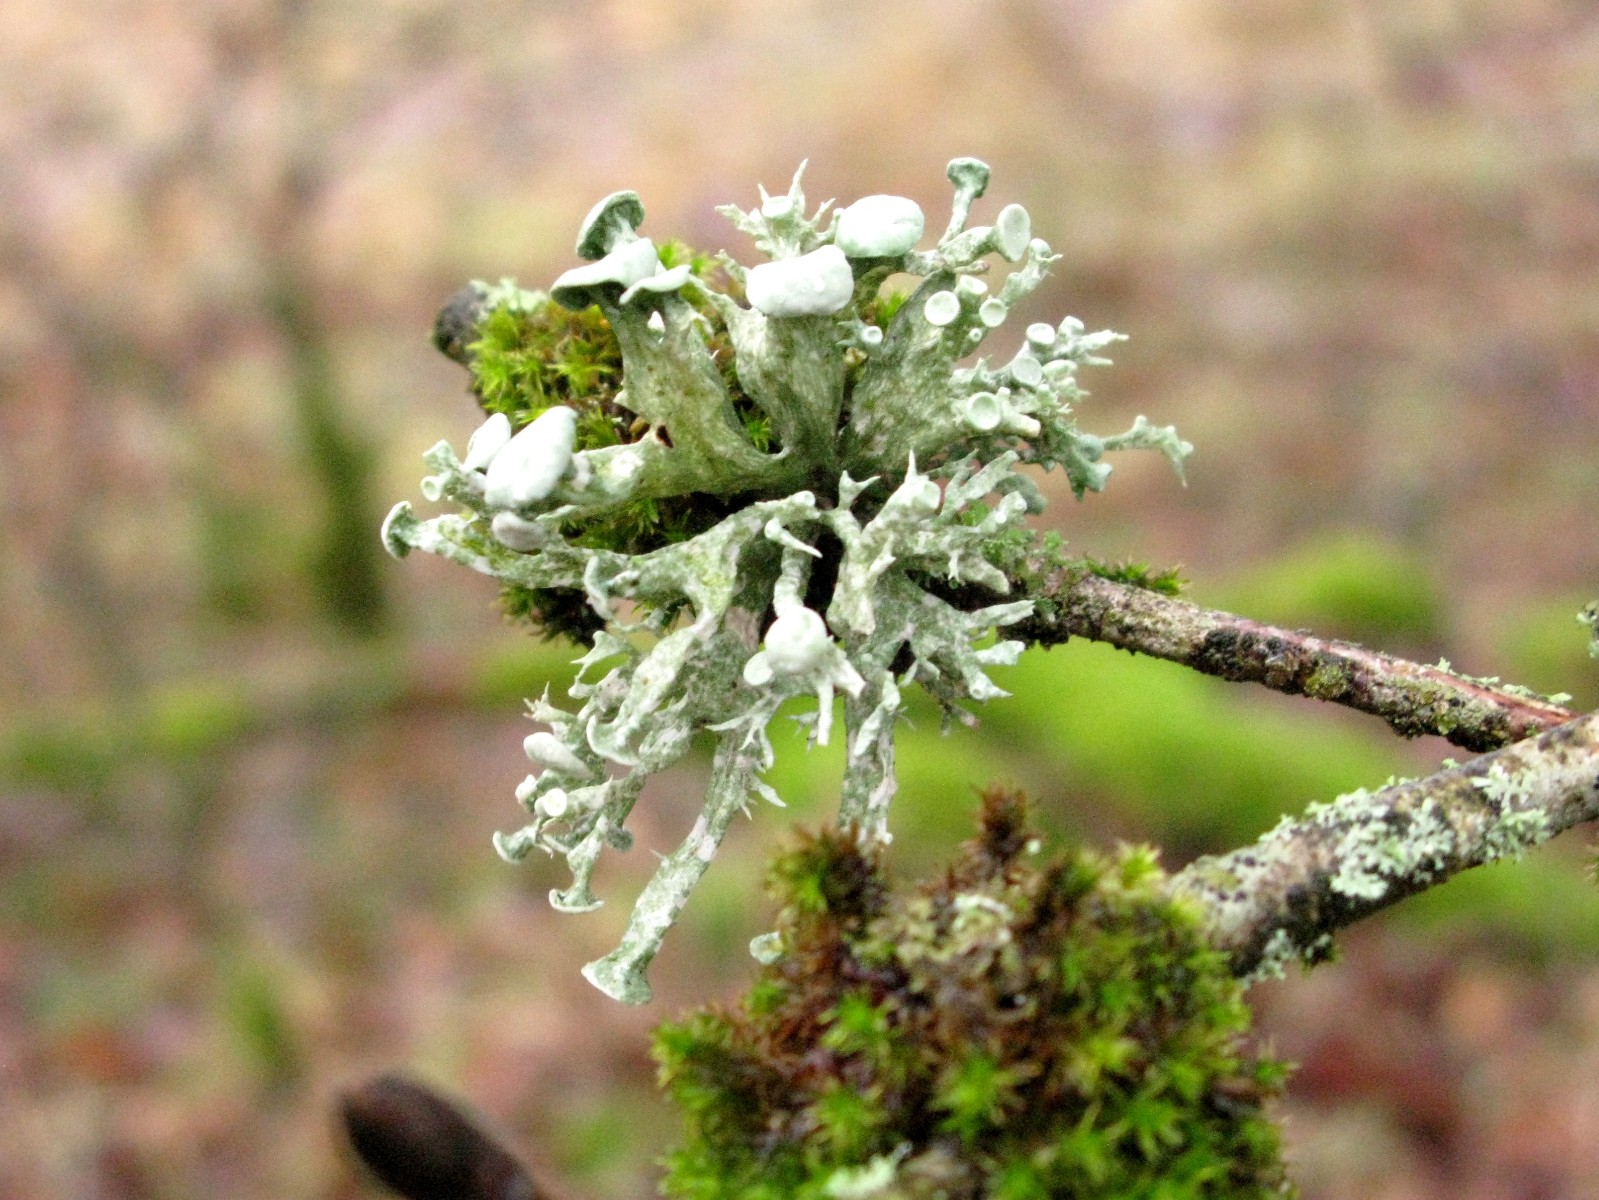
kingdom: Fungi
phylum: Ascomycota
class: Lecanoromycetes
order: Lecanorales
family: Ramalinaceae
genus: Ramalina
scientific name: Ramalina fastigiata
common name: tue-grenlav
